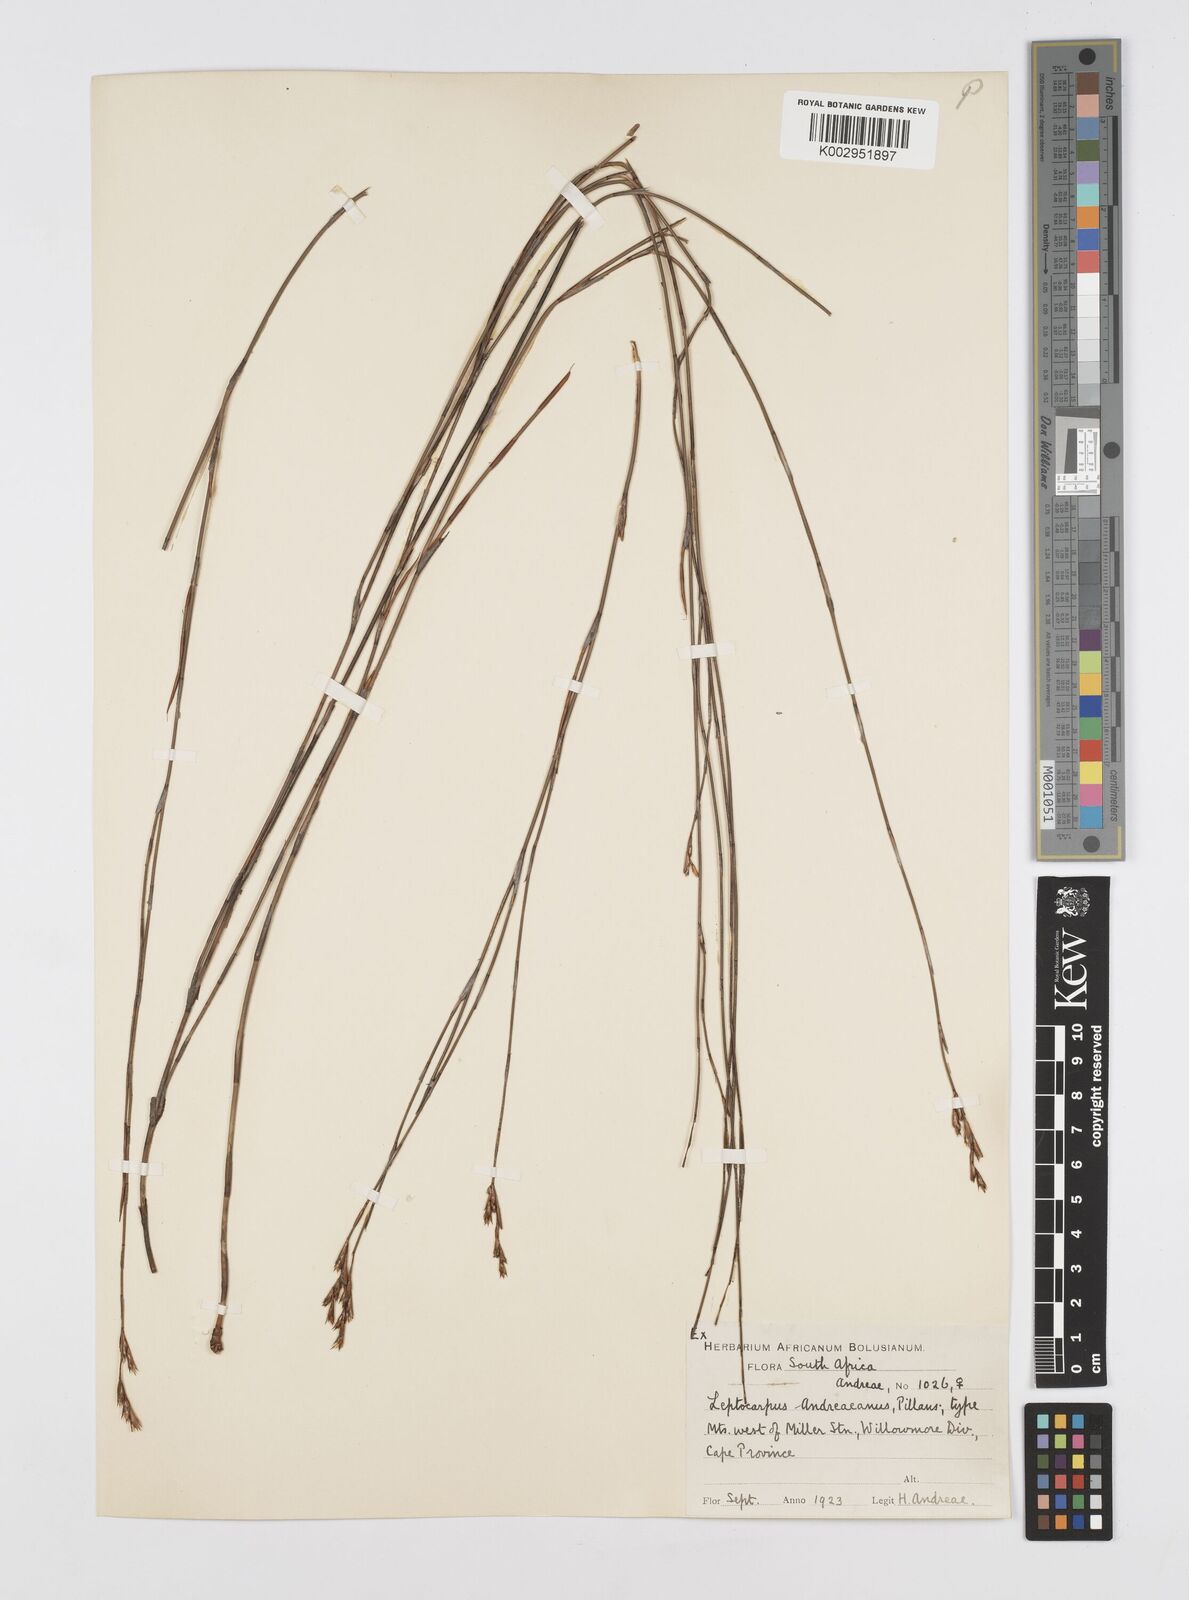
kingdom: Plantae
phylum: Tracheophyta
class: Liliopsida
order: Poales
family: Restionaceae
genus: Restio
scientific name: Restio andreaeanus
